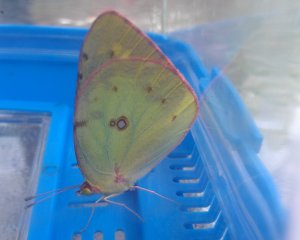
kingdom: Animalia
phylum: Arthropoda
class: Insecta
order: Lepidoptera
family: Pieridae
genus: Colias
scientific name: Colias philodice
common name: Clouded Sulphur
